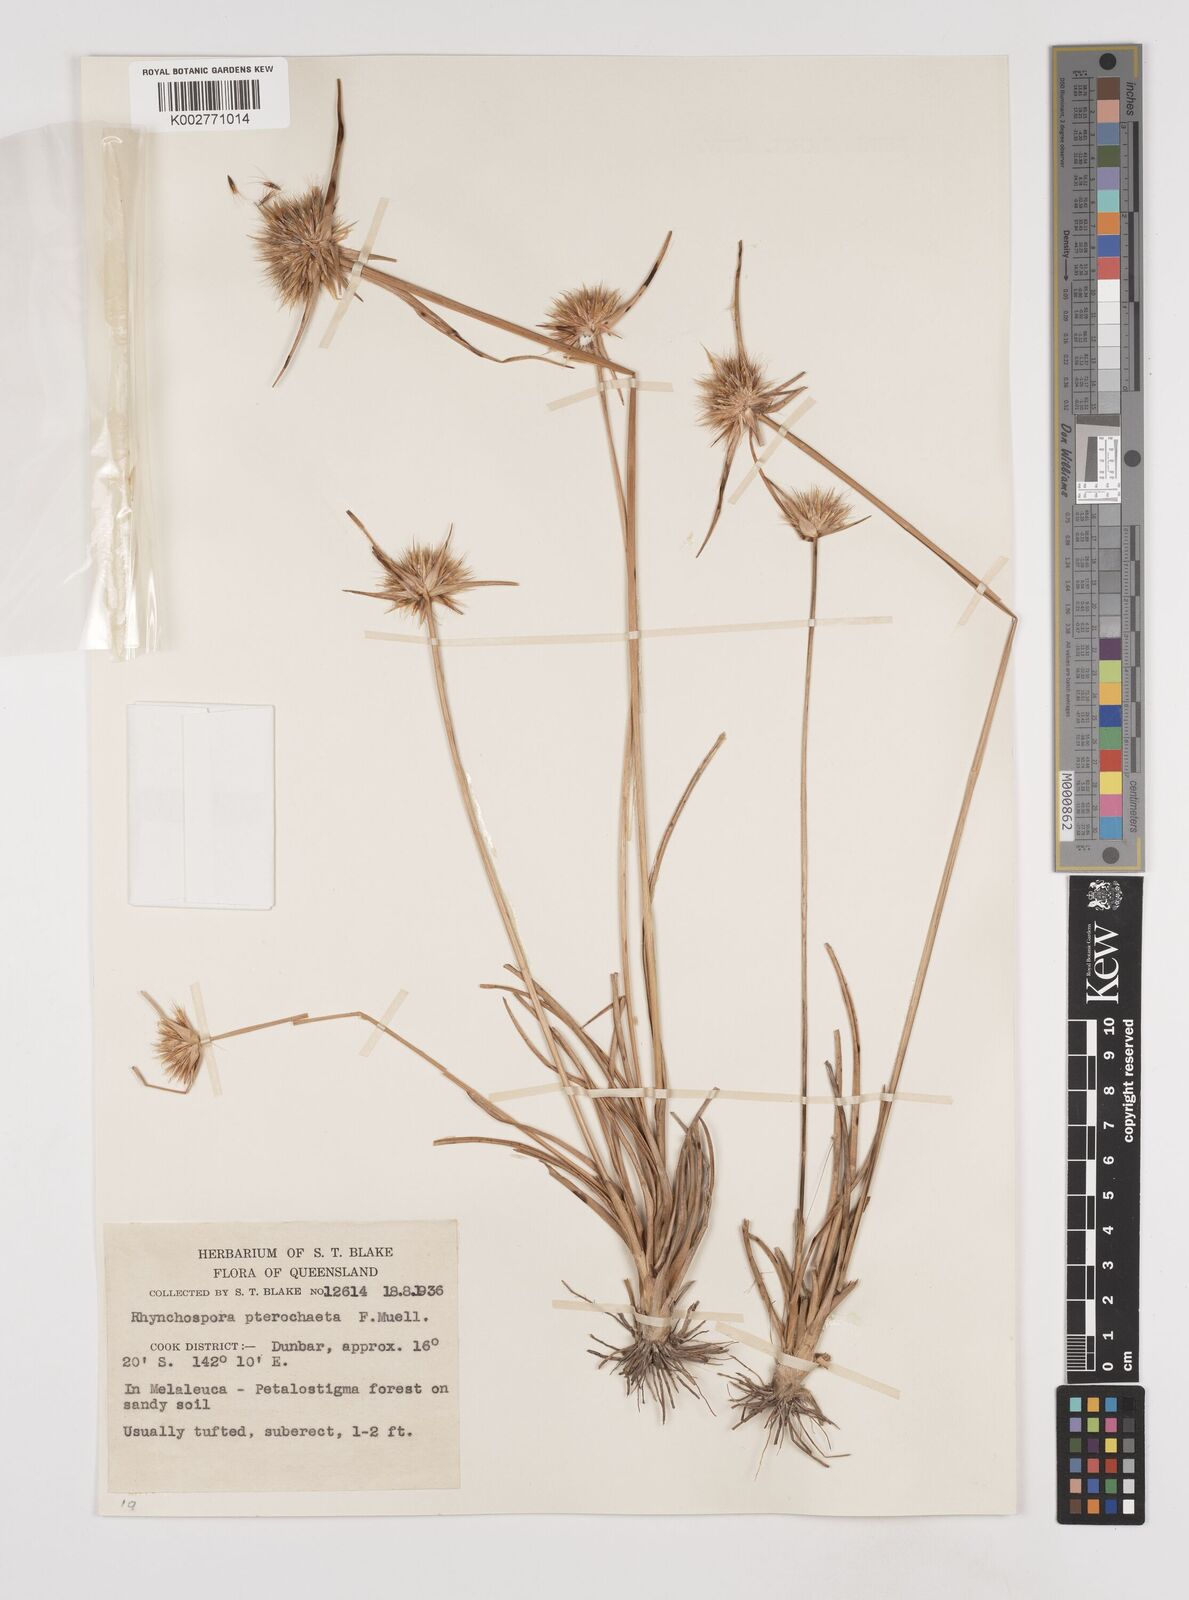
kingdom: Plantae
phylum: Tracheophyta
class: Liliopsida
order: Poales
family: Cyperaceae
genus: Rhynchospora
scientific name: Rhynchospora pterochaeta
